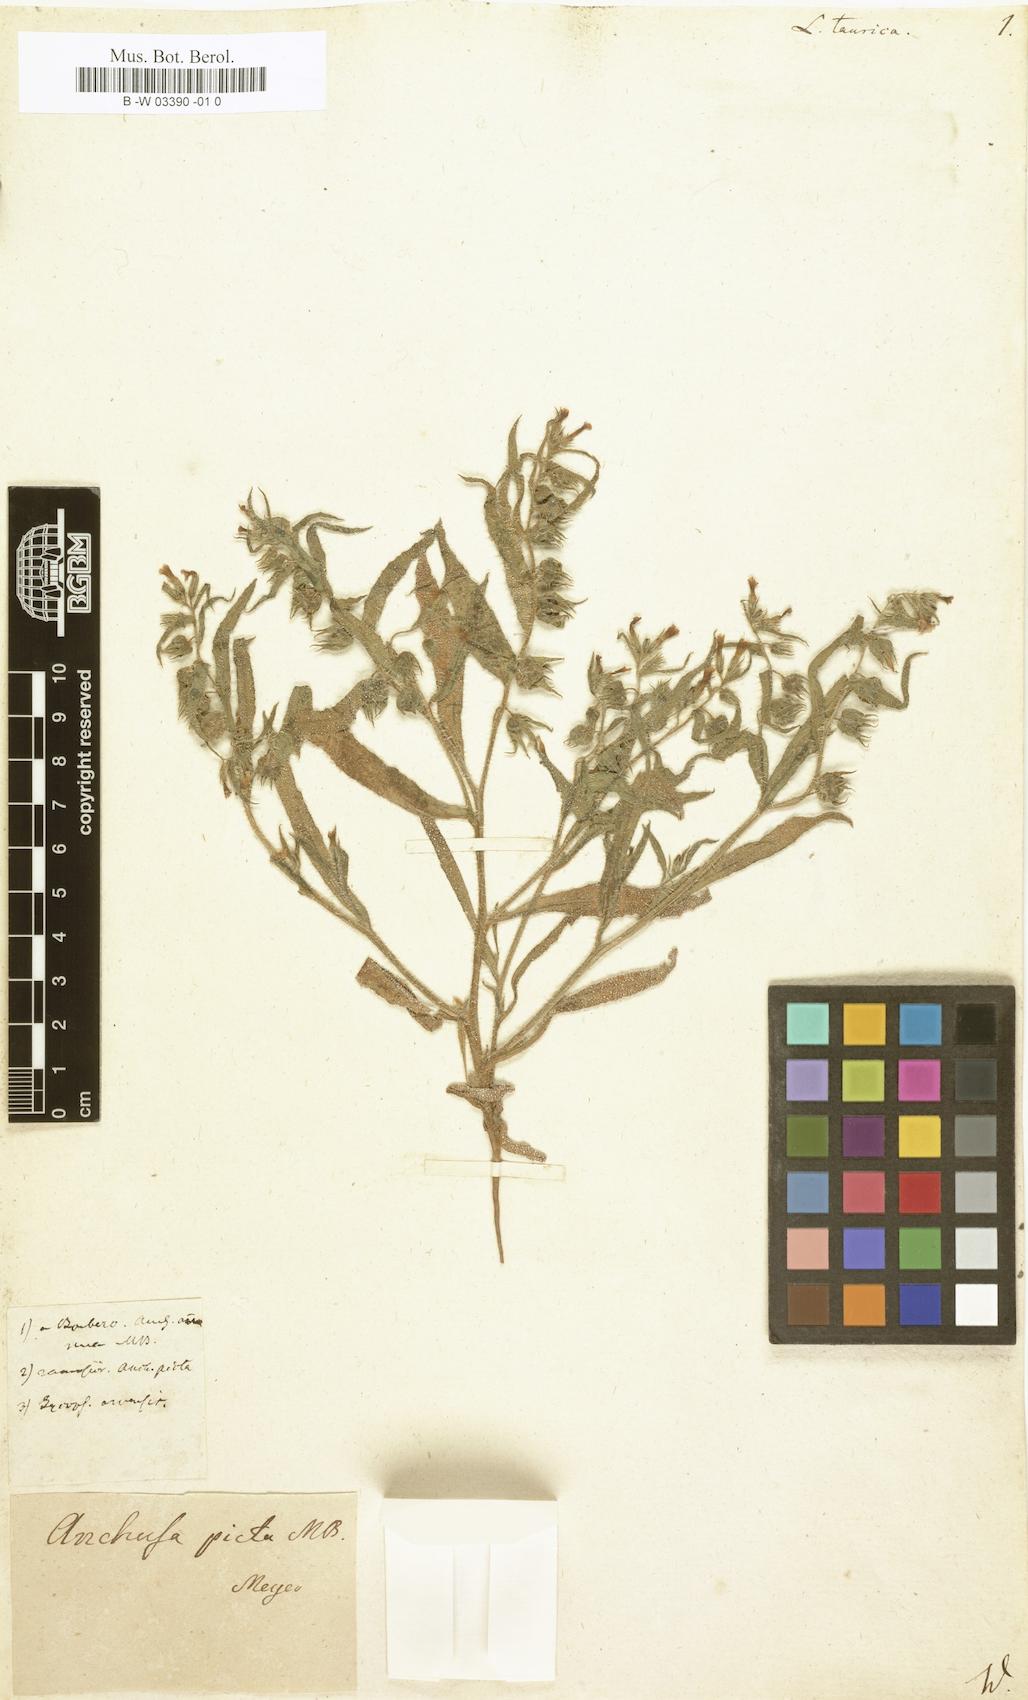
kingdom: Plantae
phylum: Tracheophyta
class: Magnoliopsida
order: Boraginales
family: Boraginaceae
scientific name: Boraginaceae
